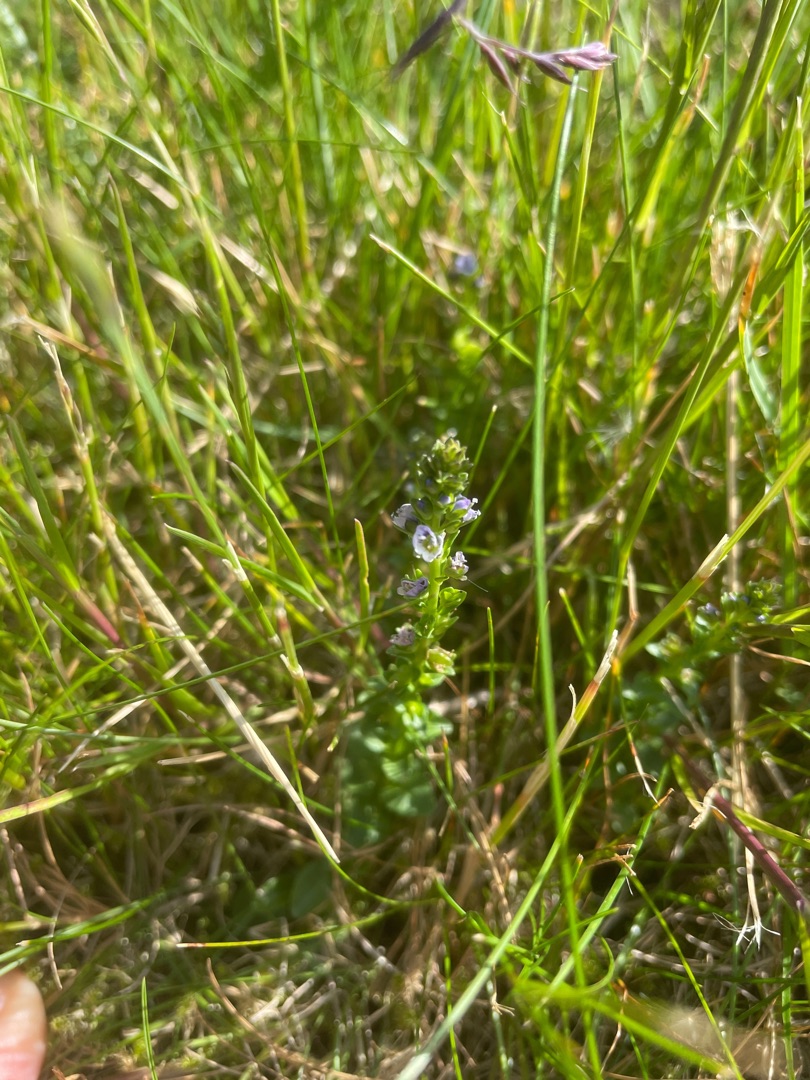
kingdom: Plantae
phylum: Tracheophyta
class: Magnoliopsida
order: Lamiales
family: Plantaginaceae
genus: Veronica
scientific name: Veronica serpyllifolia
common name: Glat ærenpris
